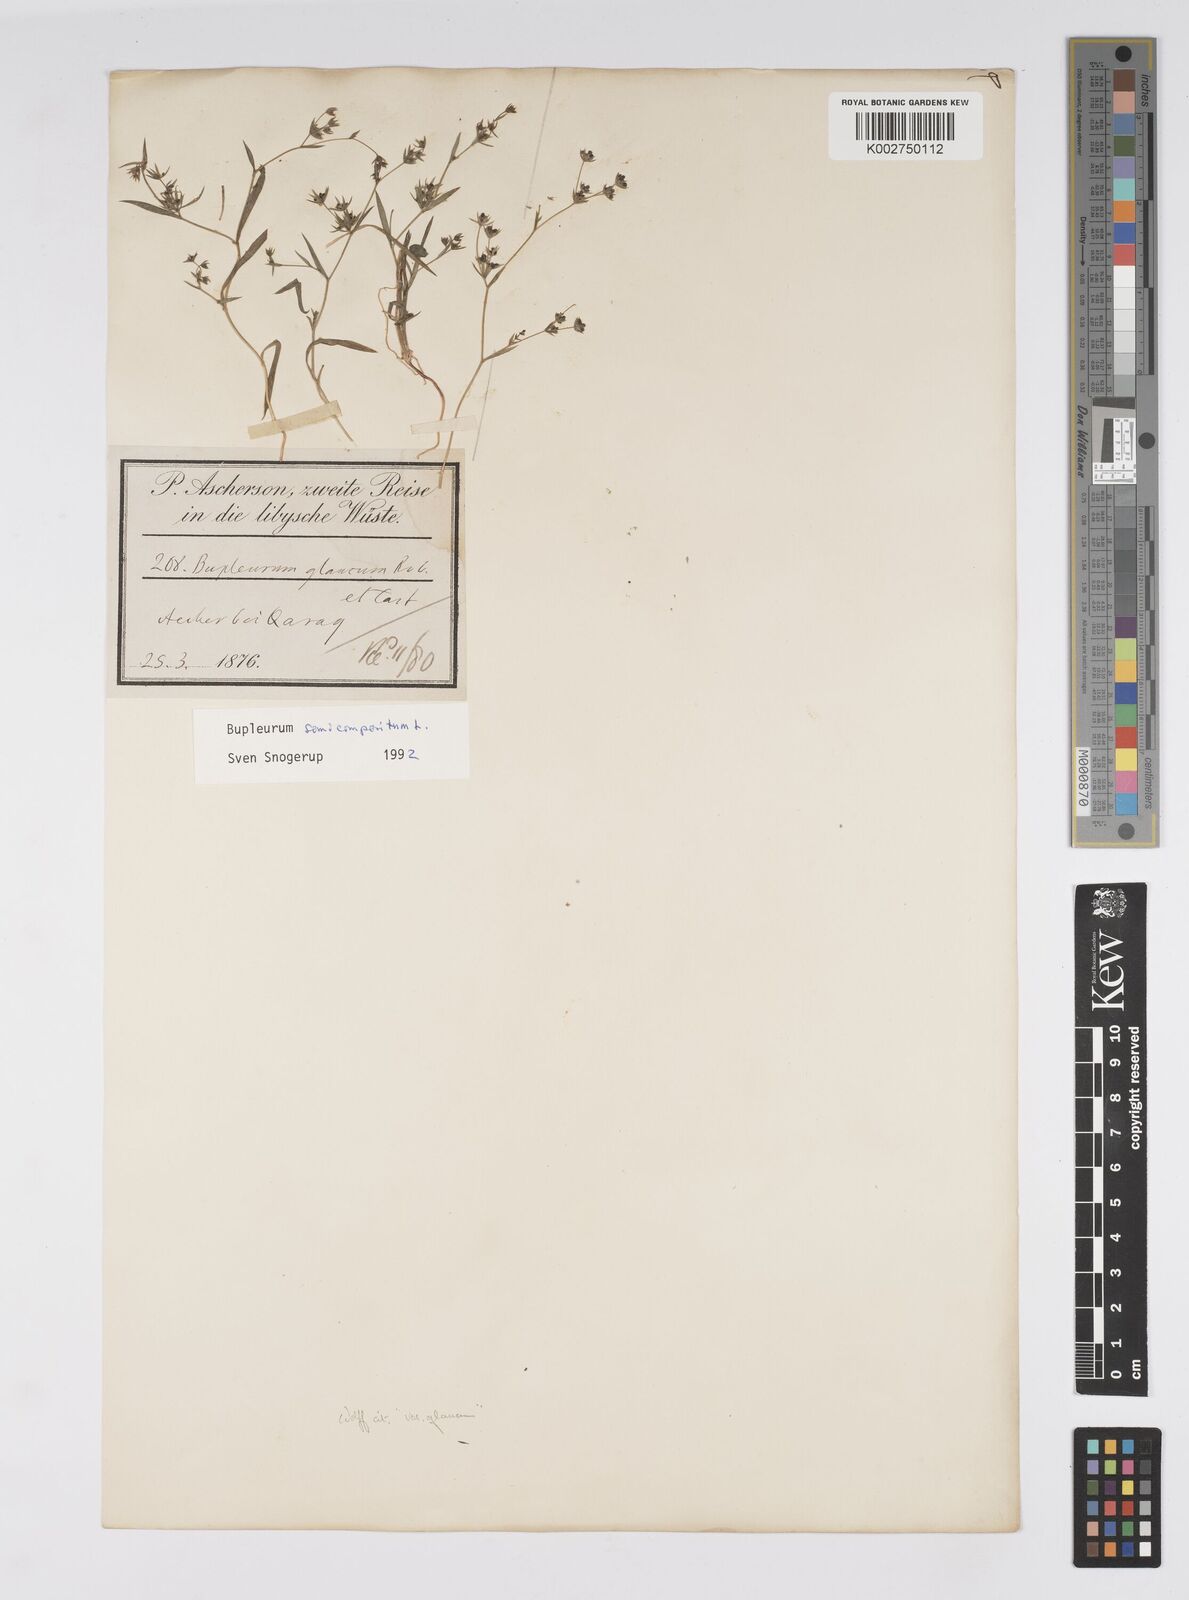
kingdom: Plantae
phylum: Tracheophyta
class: Magnoliopsida
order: Apiales
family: Apiaceae
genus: Bupleurum
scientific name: Bupleurum semicompositum
